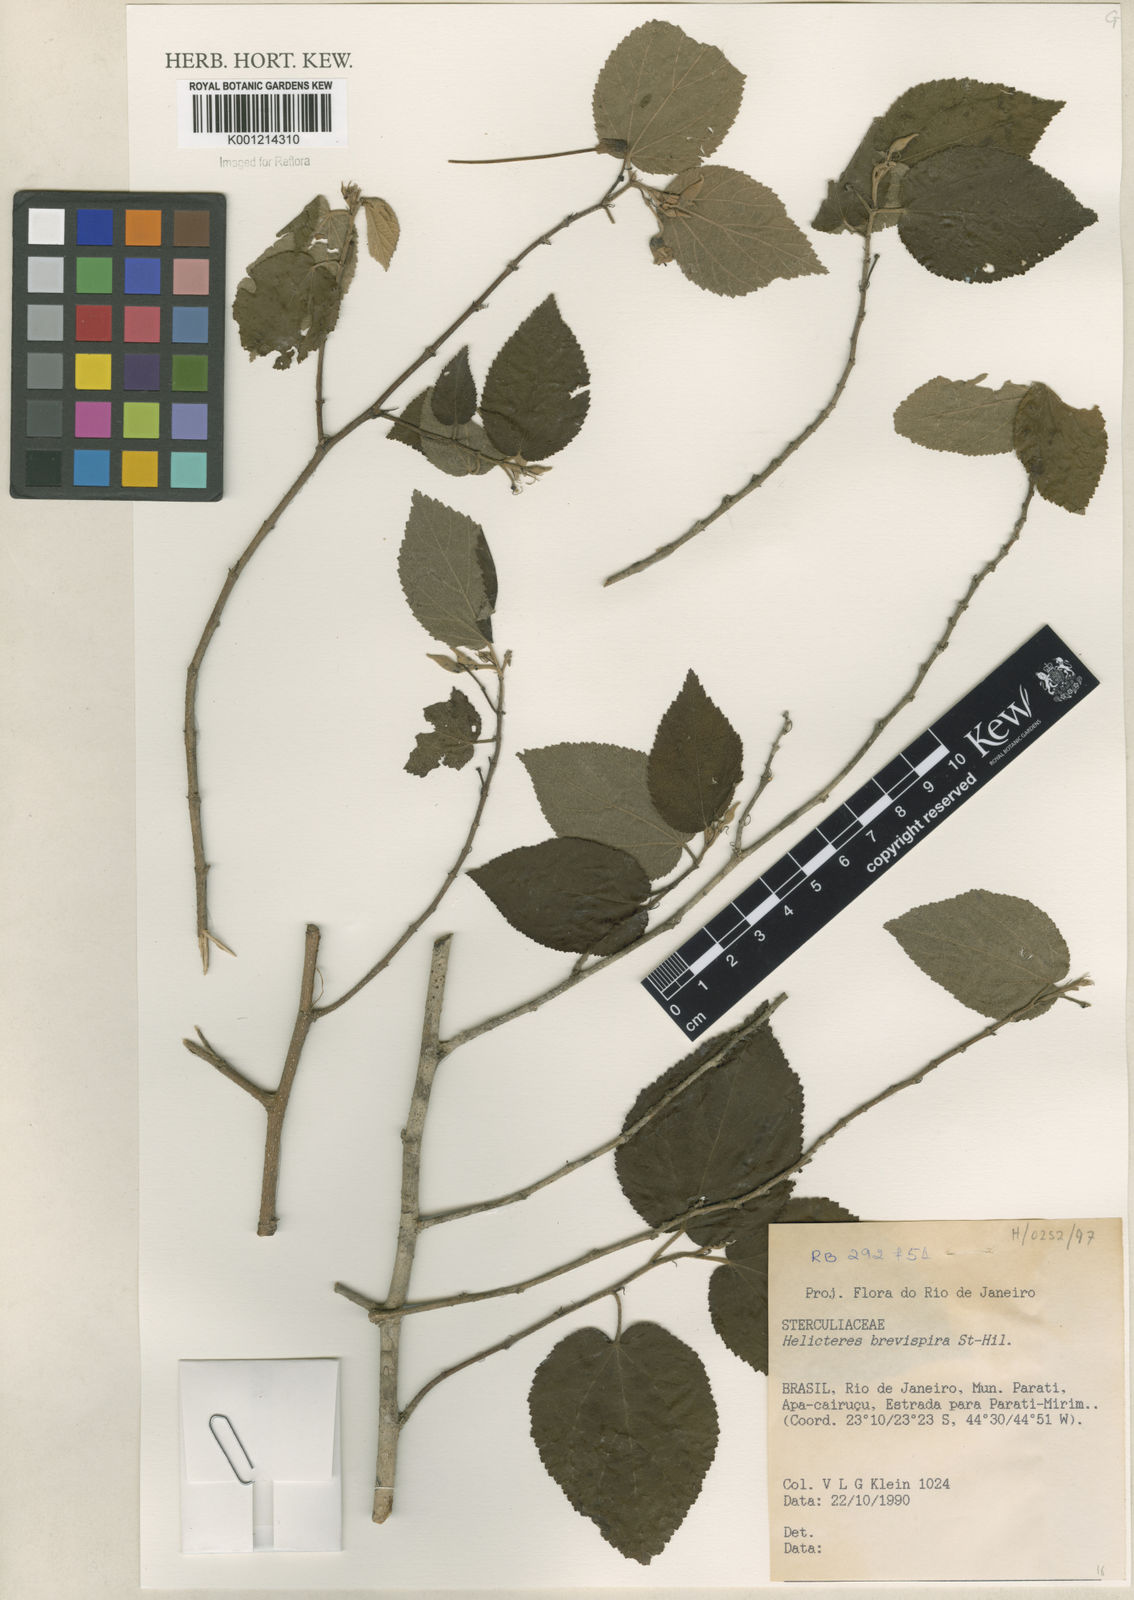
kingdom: Plantae
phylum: Tracheophyta
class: Magnoliopsida
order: Malvales
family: Malvaceae
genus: Helicteres
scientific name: Helicteres
